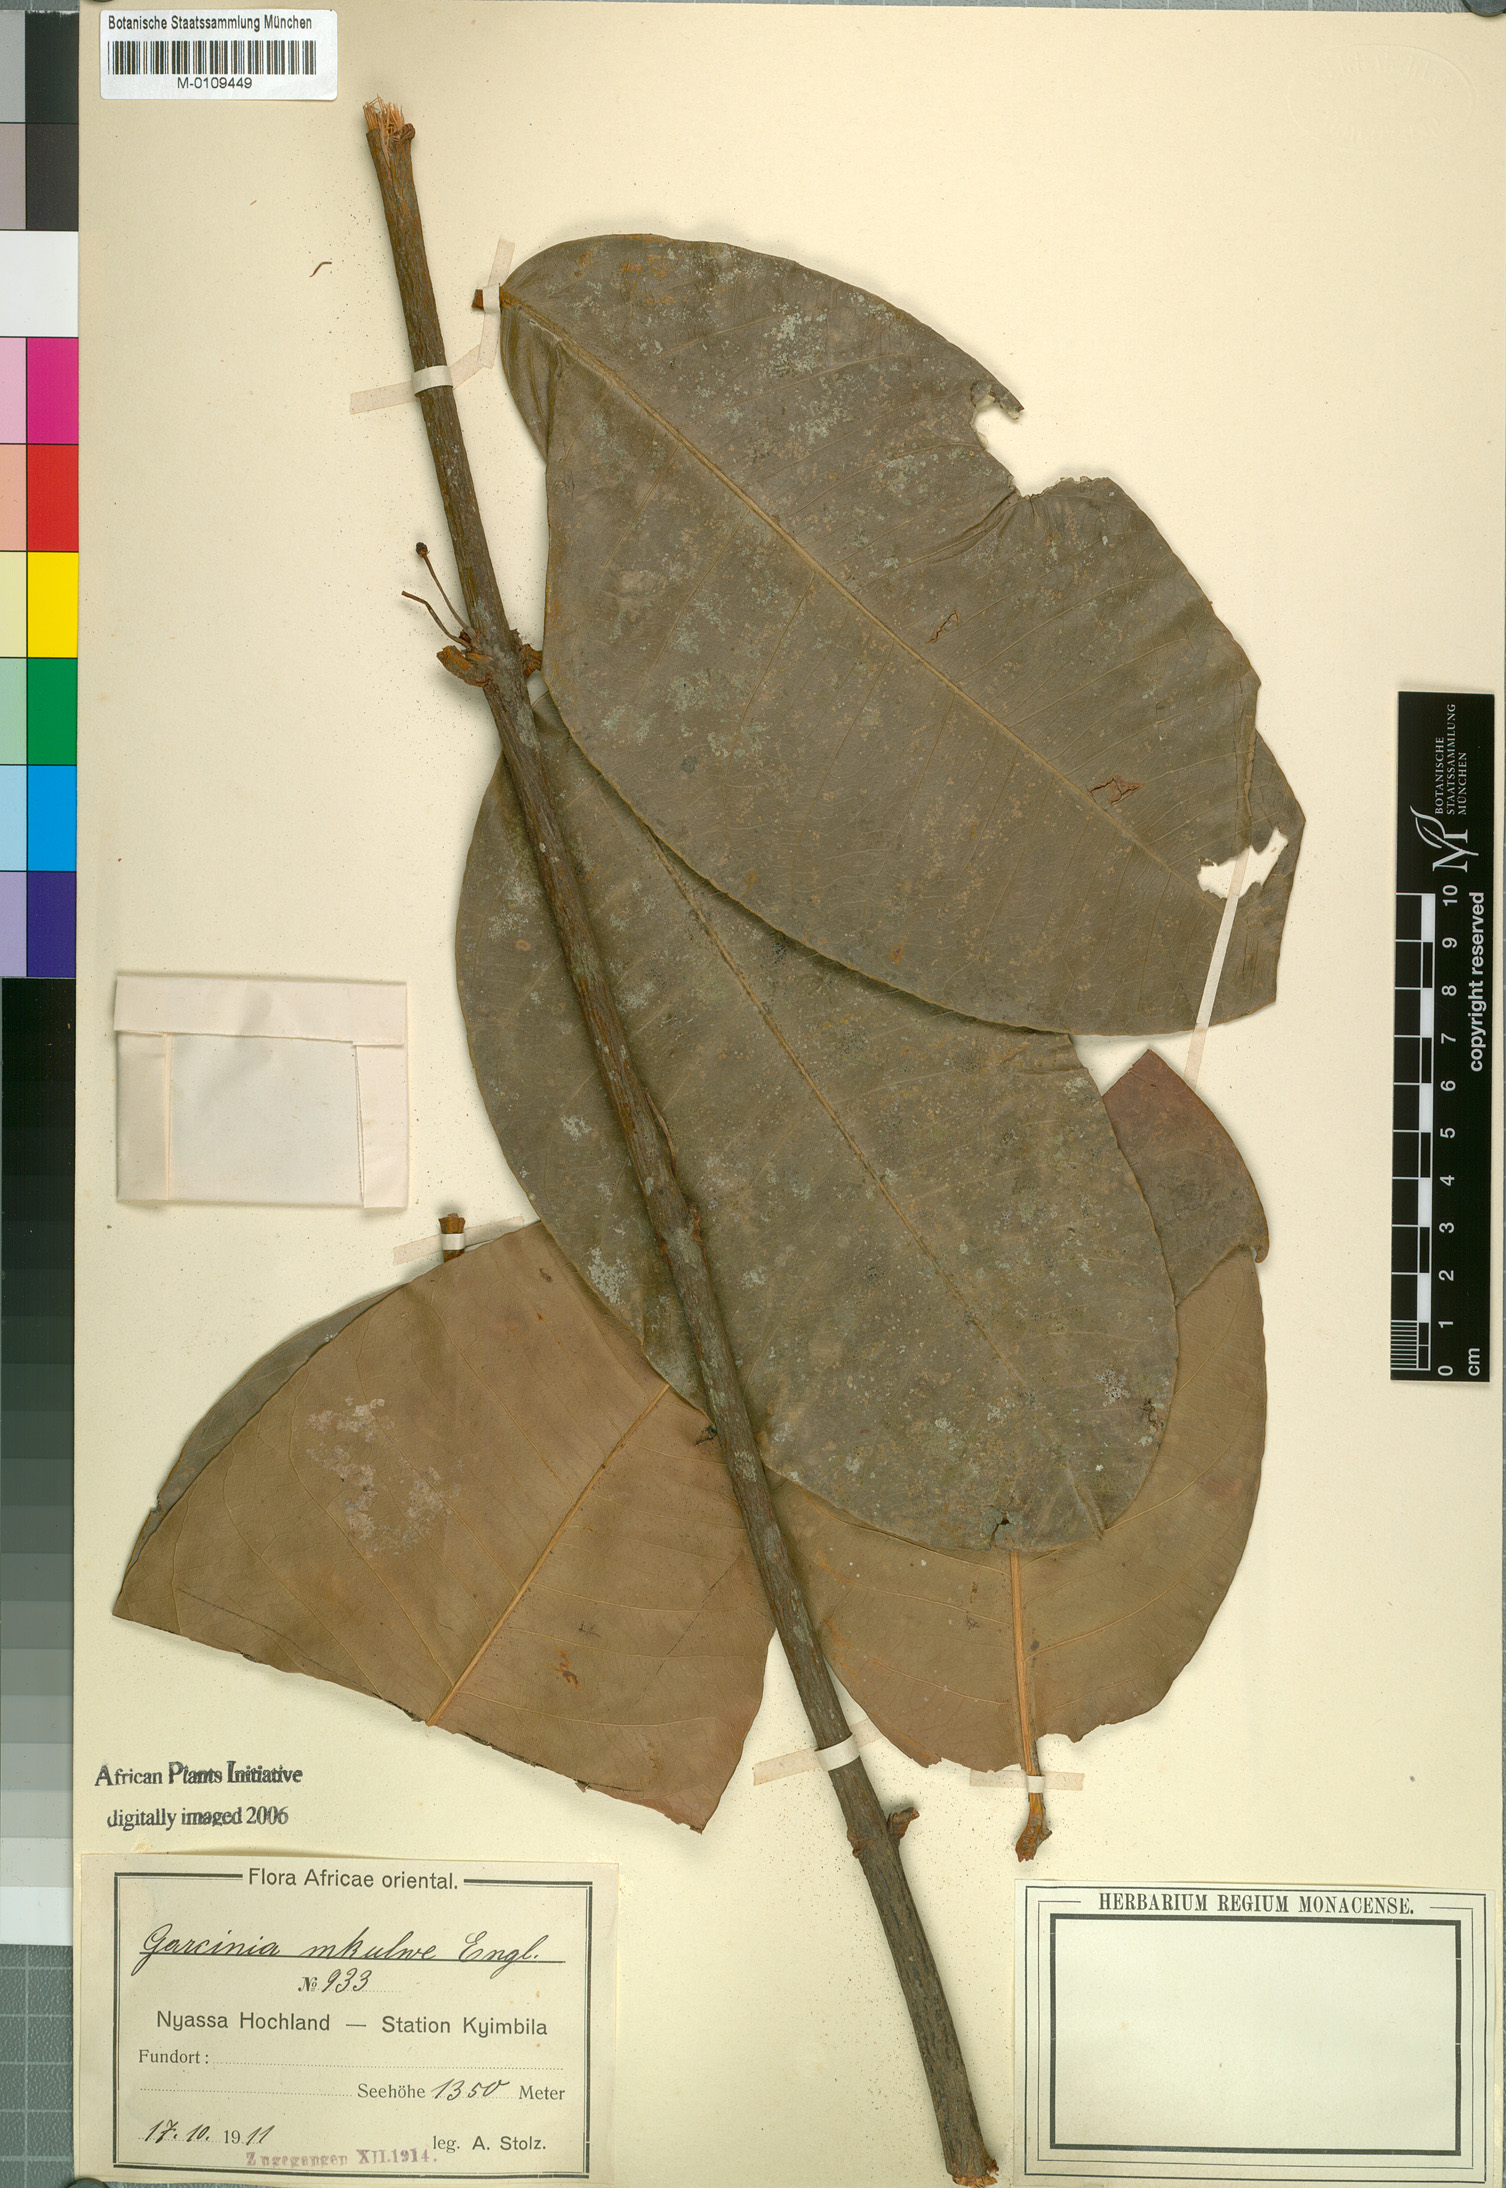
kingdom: Plantae
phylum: Tracheophyta
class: Magnoliopsida
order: Malpighiales
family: Clusiaceae
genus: Garcinia
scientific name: Garcinia smeathmannii
